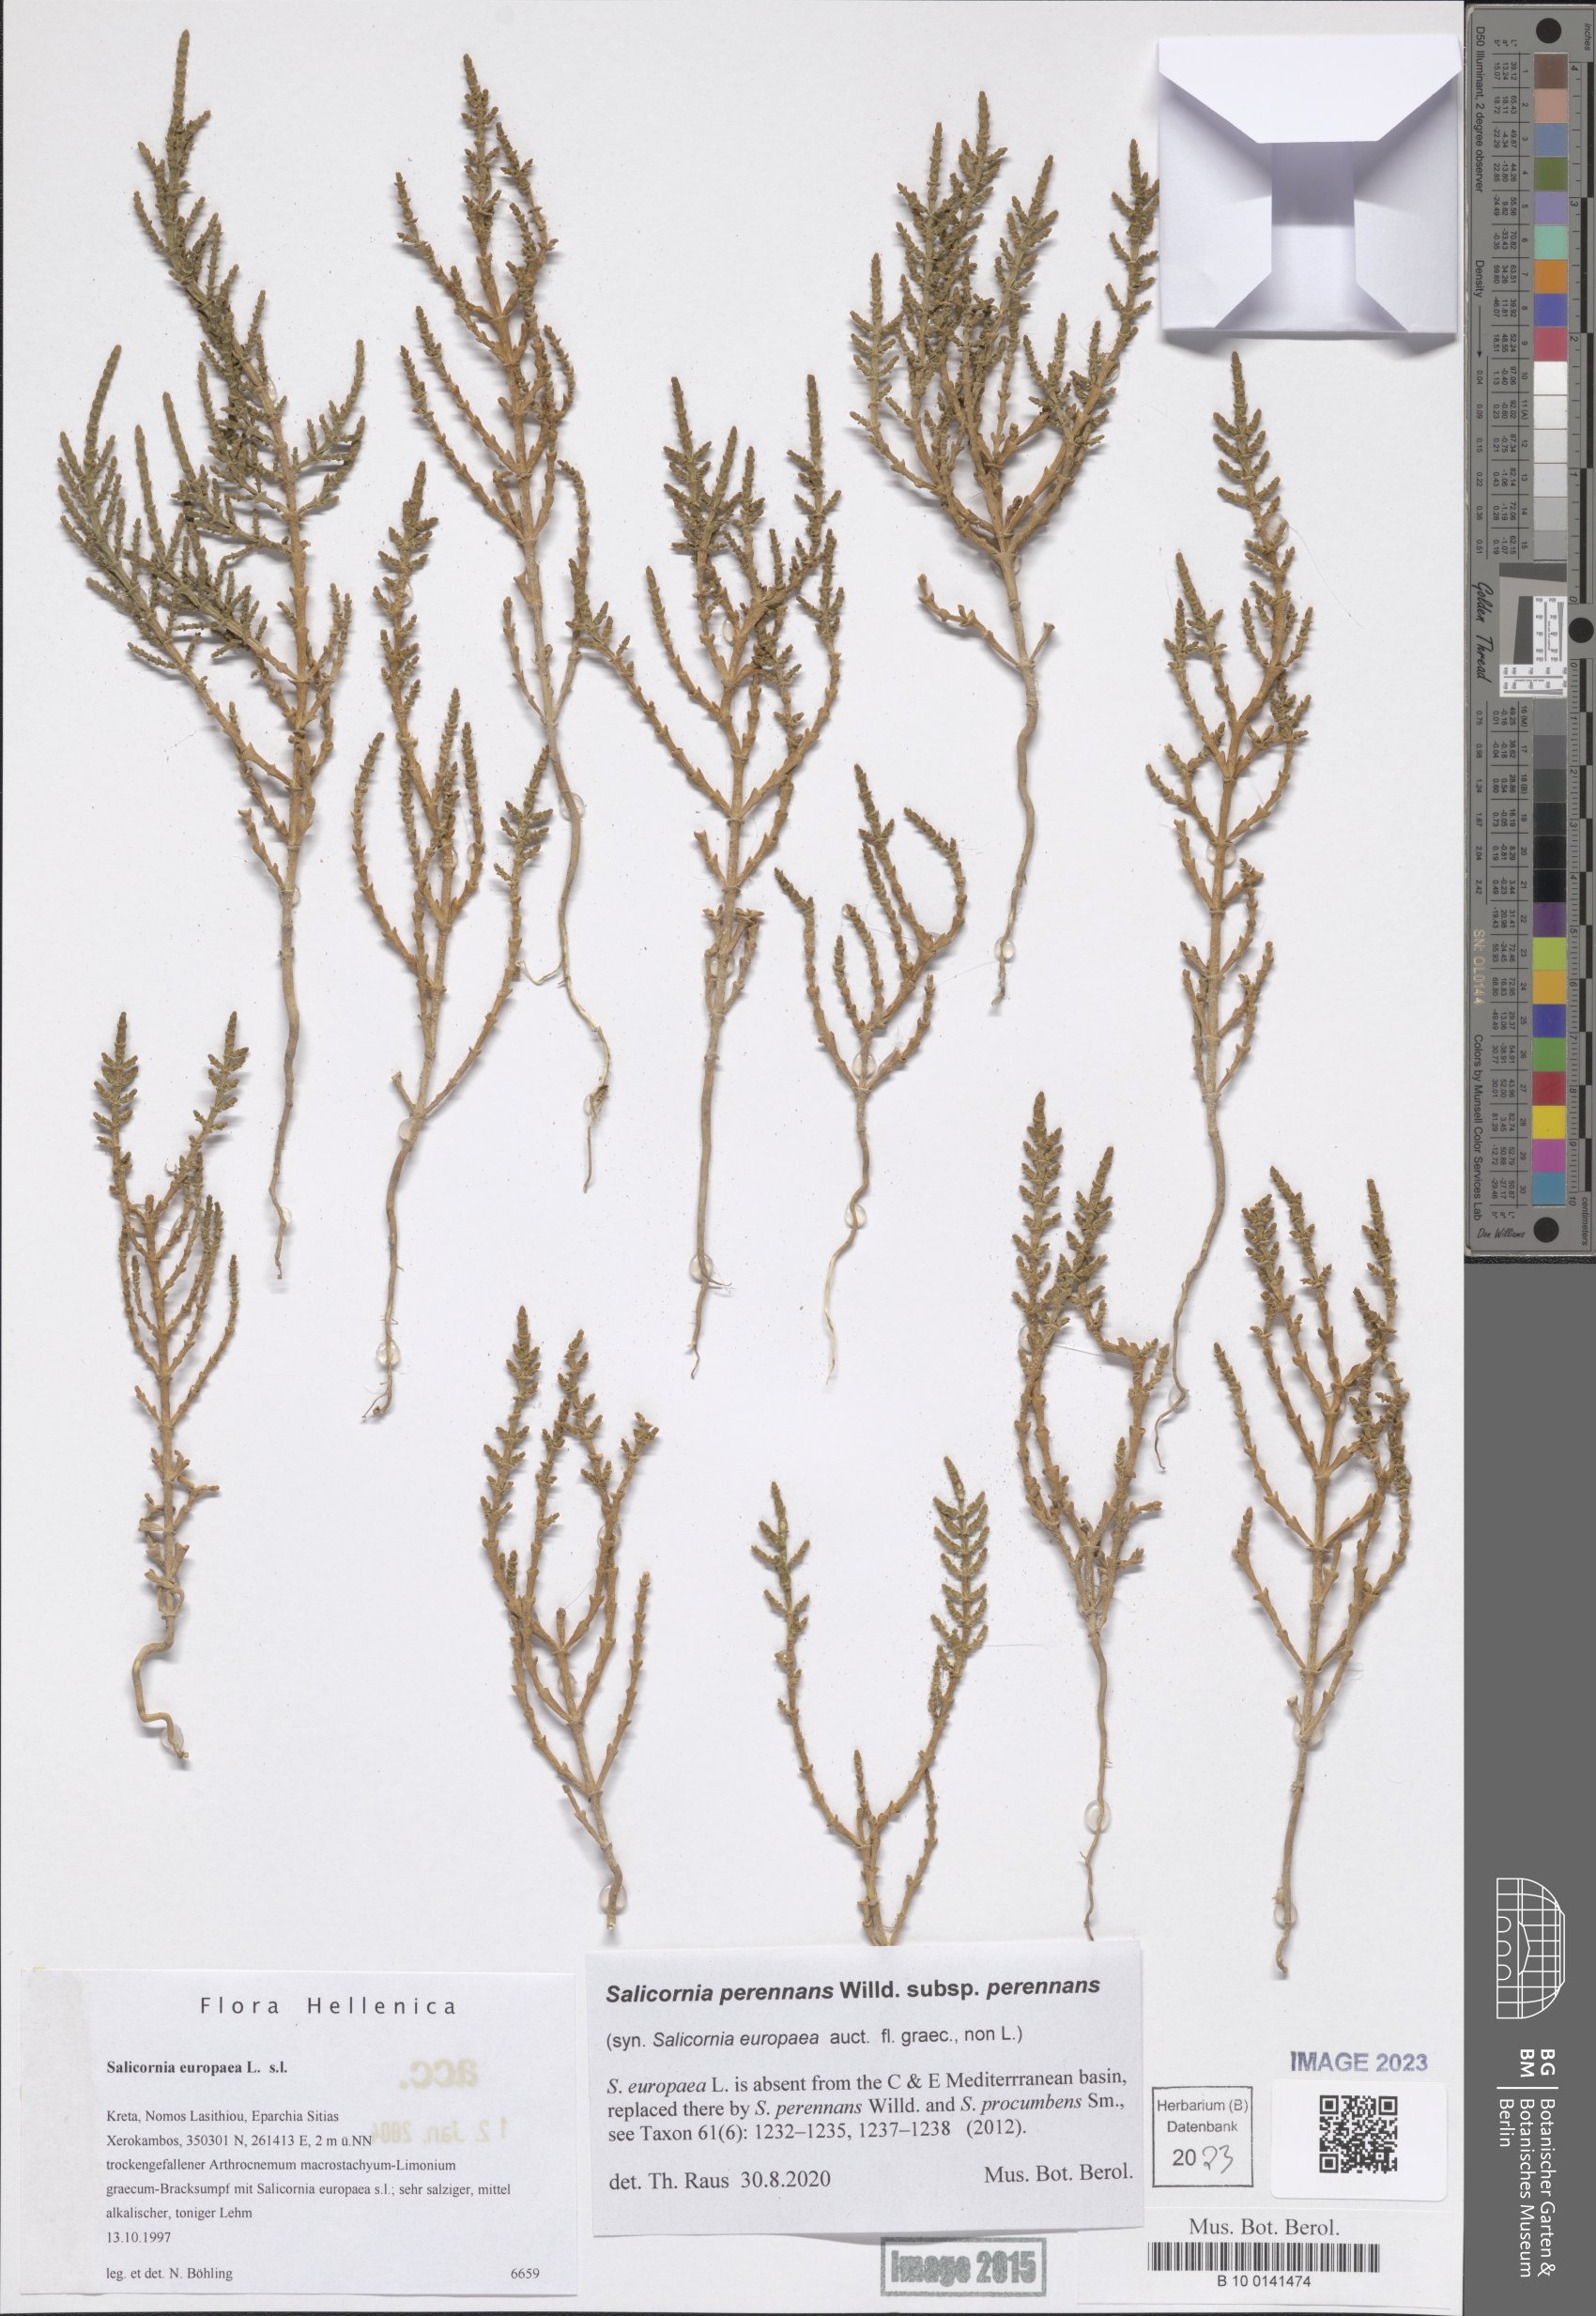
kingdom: Plantae
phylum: Tracheophyta
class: Magnoliopsida
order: Caryophyllales
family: Amaranthaceae
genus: Salicornia
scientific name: Salicornia perennans
